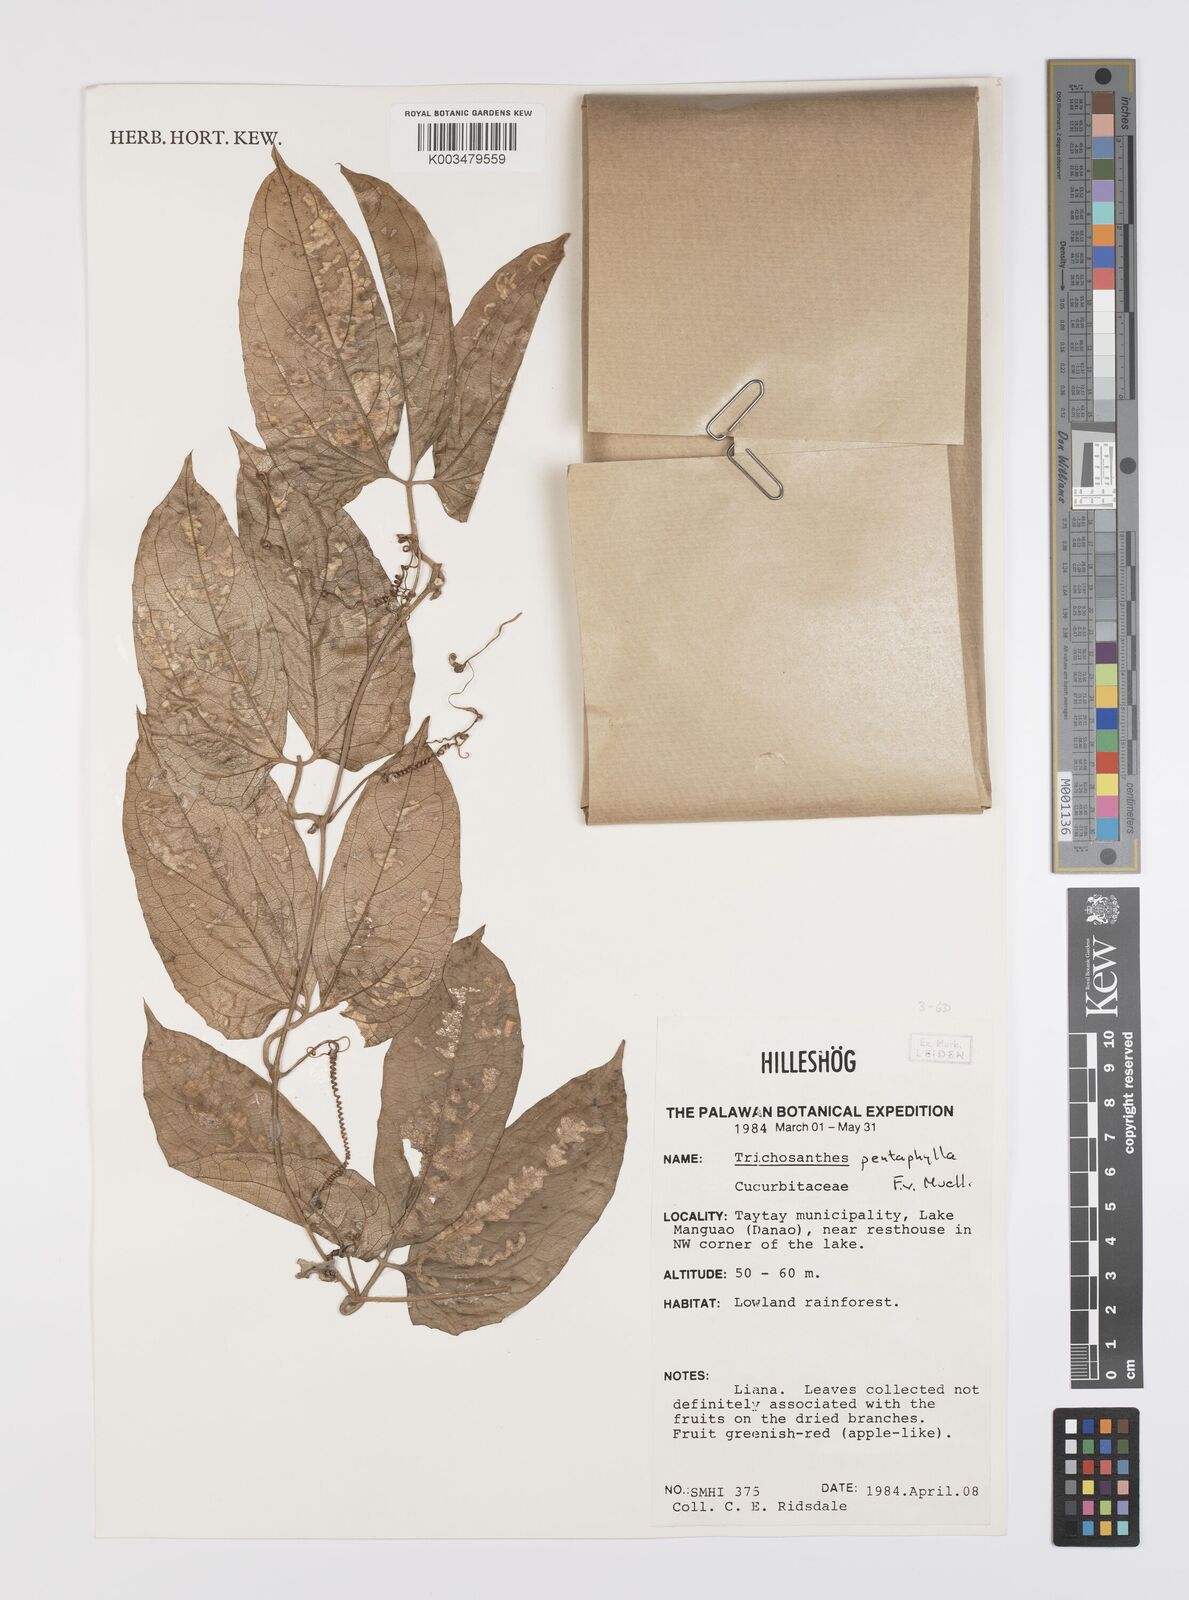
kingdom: Plantae
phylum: Tracheophyta
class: Magnoliopsida
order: Cucurbitales
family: Cucurbitaceae
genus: Trichosanthes
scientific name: Trichosanthes pentaphylla
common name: Red gourd
